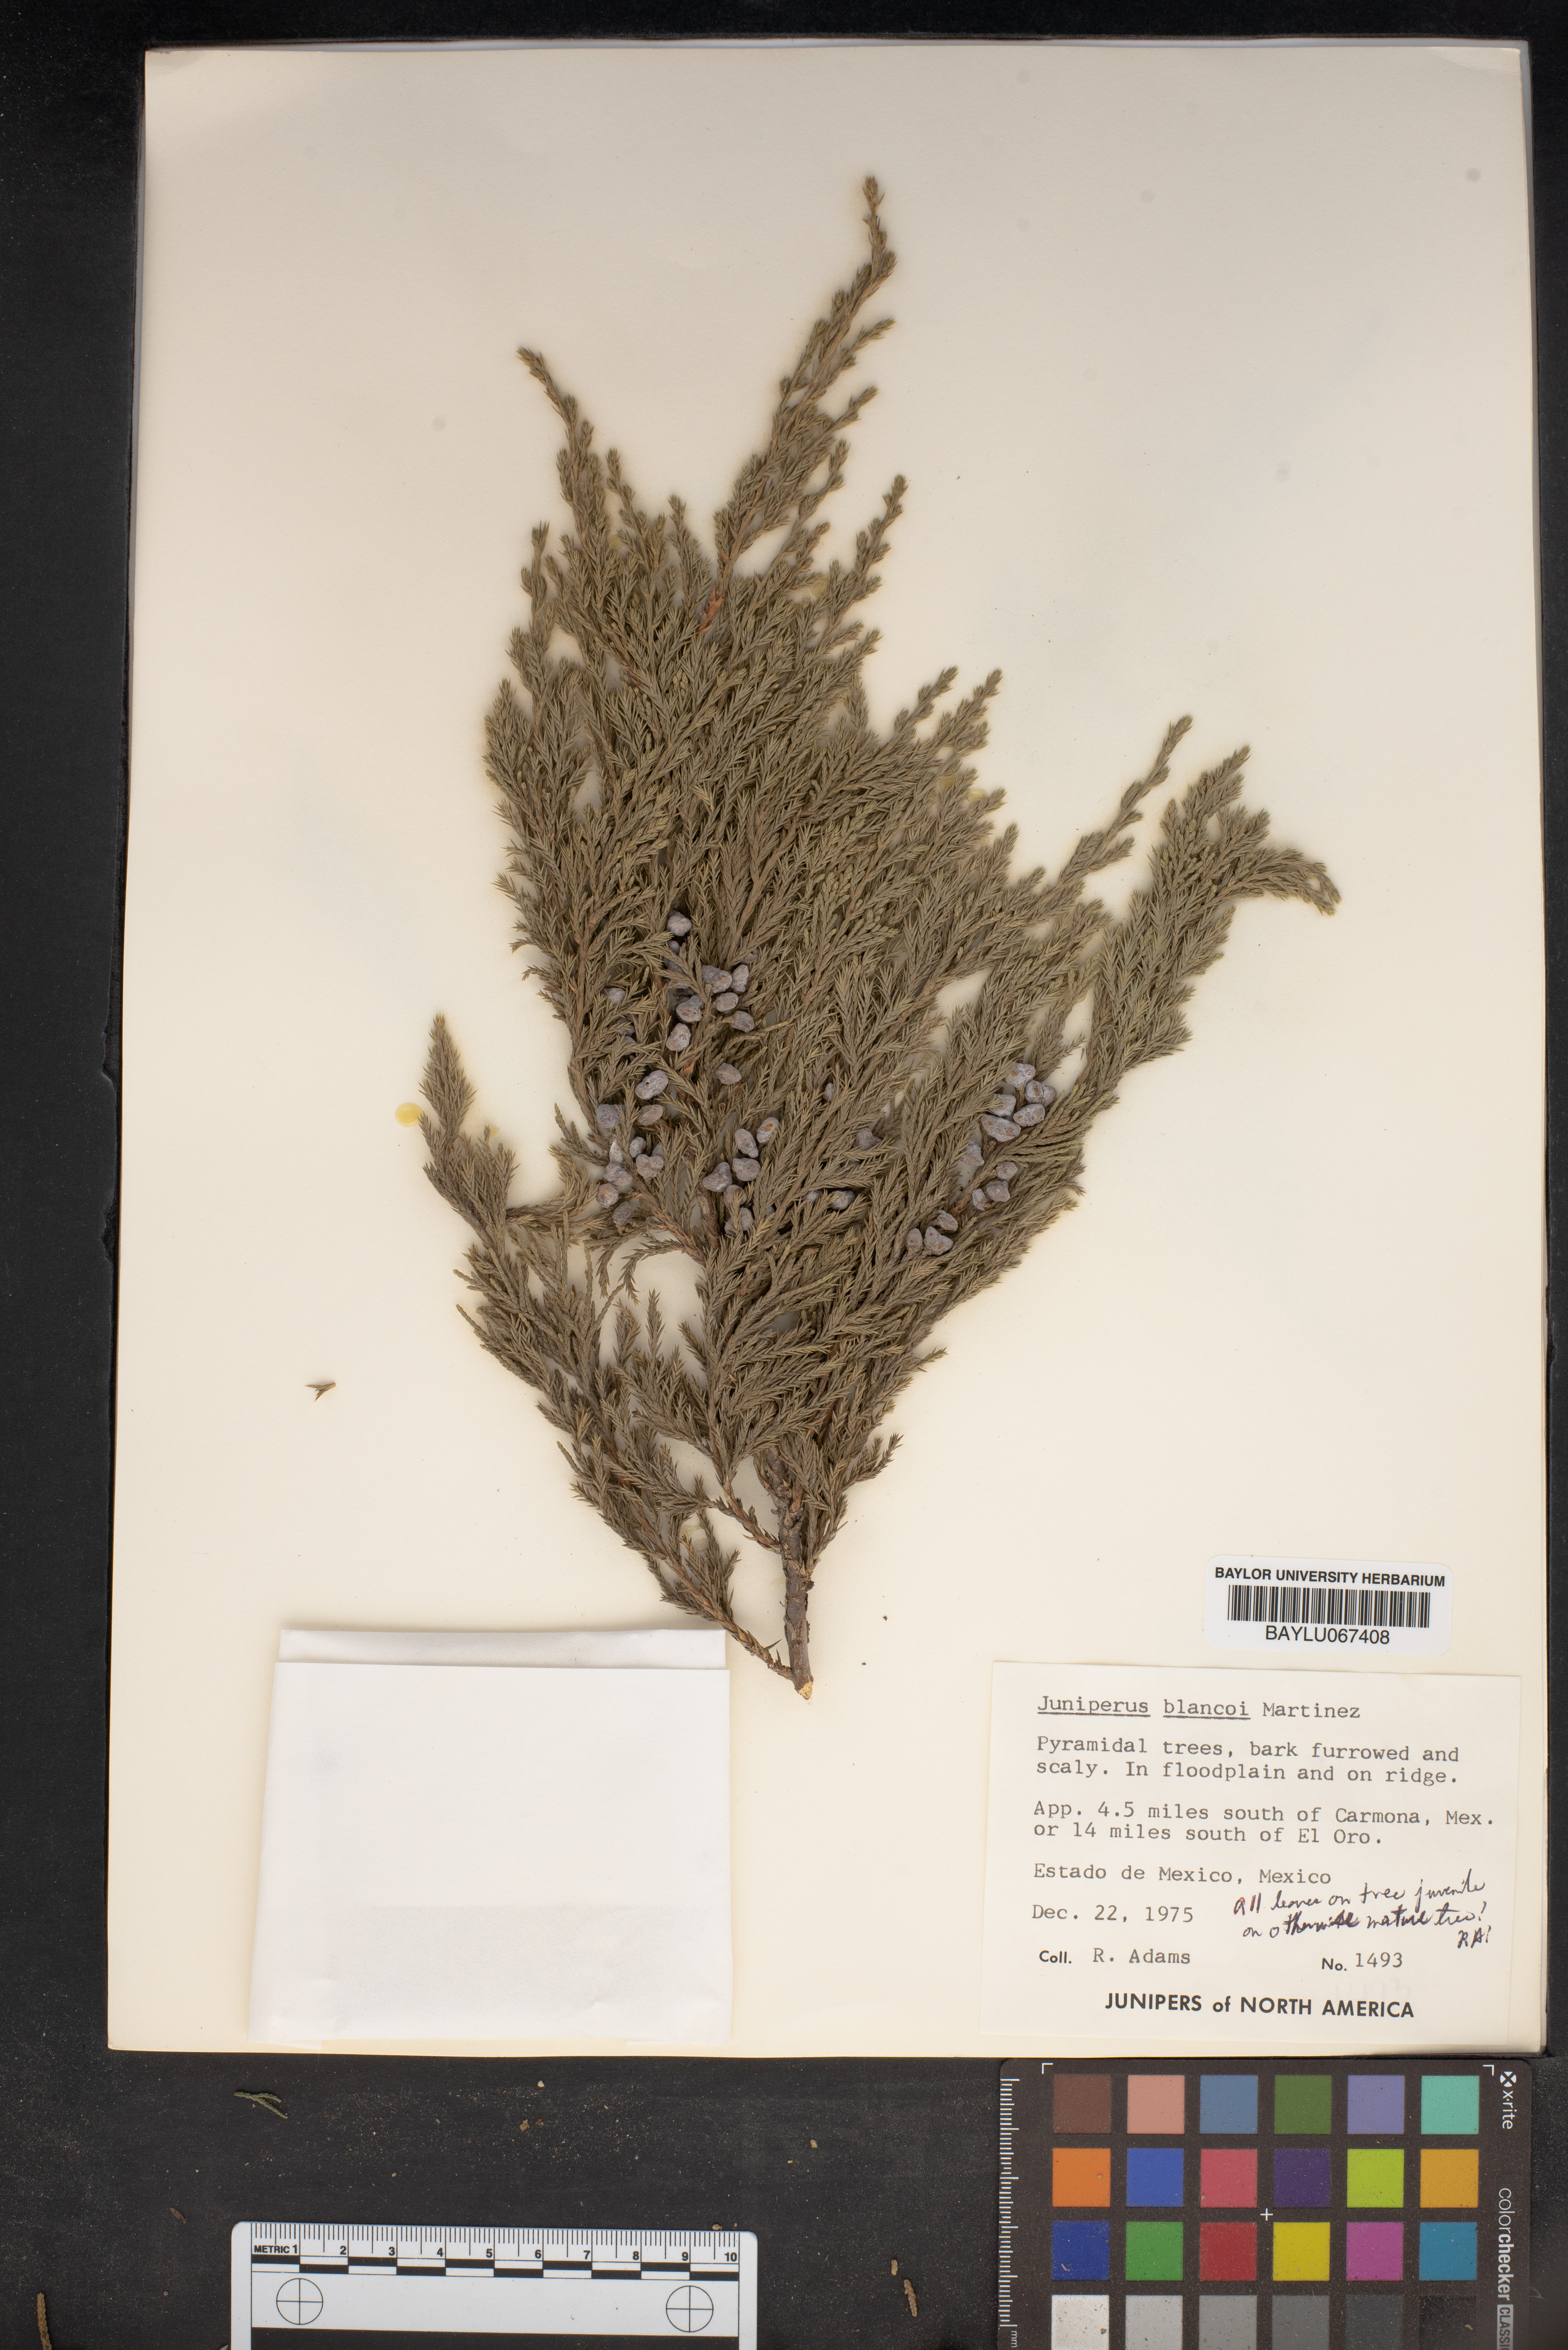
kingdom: Plantae
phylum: Tracheophyta
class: Pinopsida
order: Pinales
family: Cupressaceae
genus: Juniperus
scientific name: Juniperus blancoi
